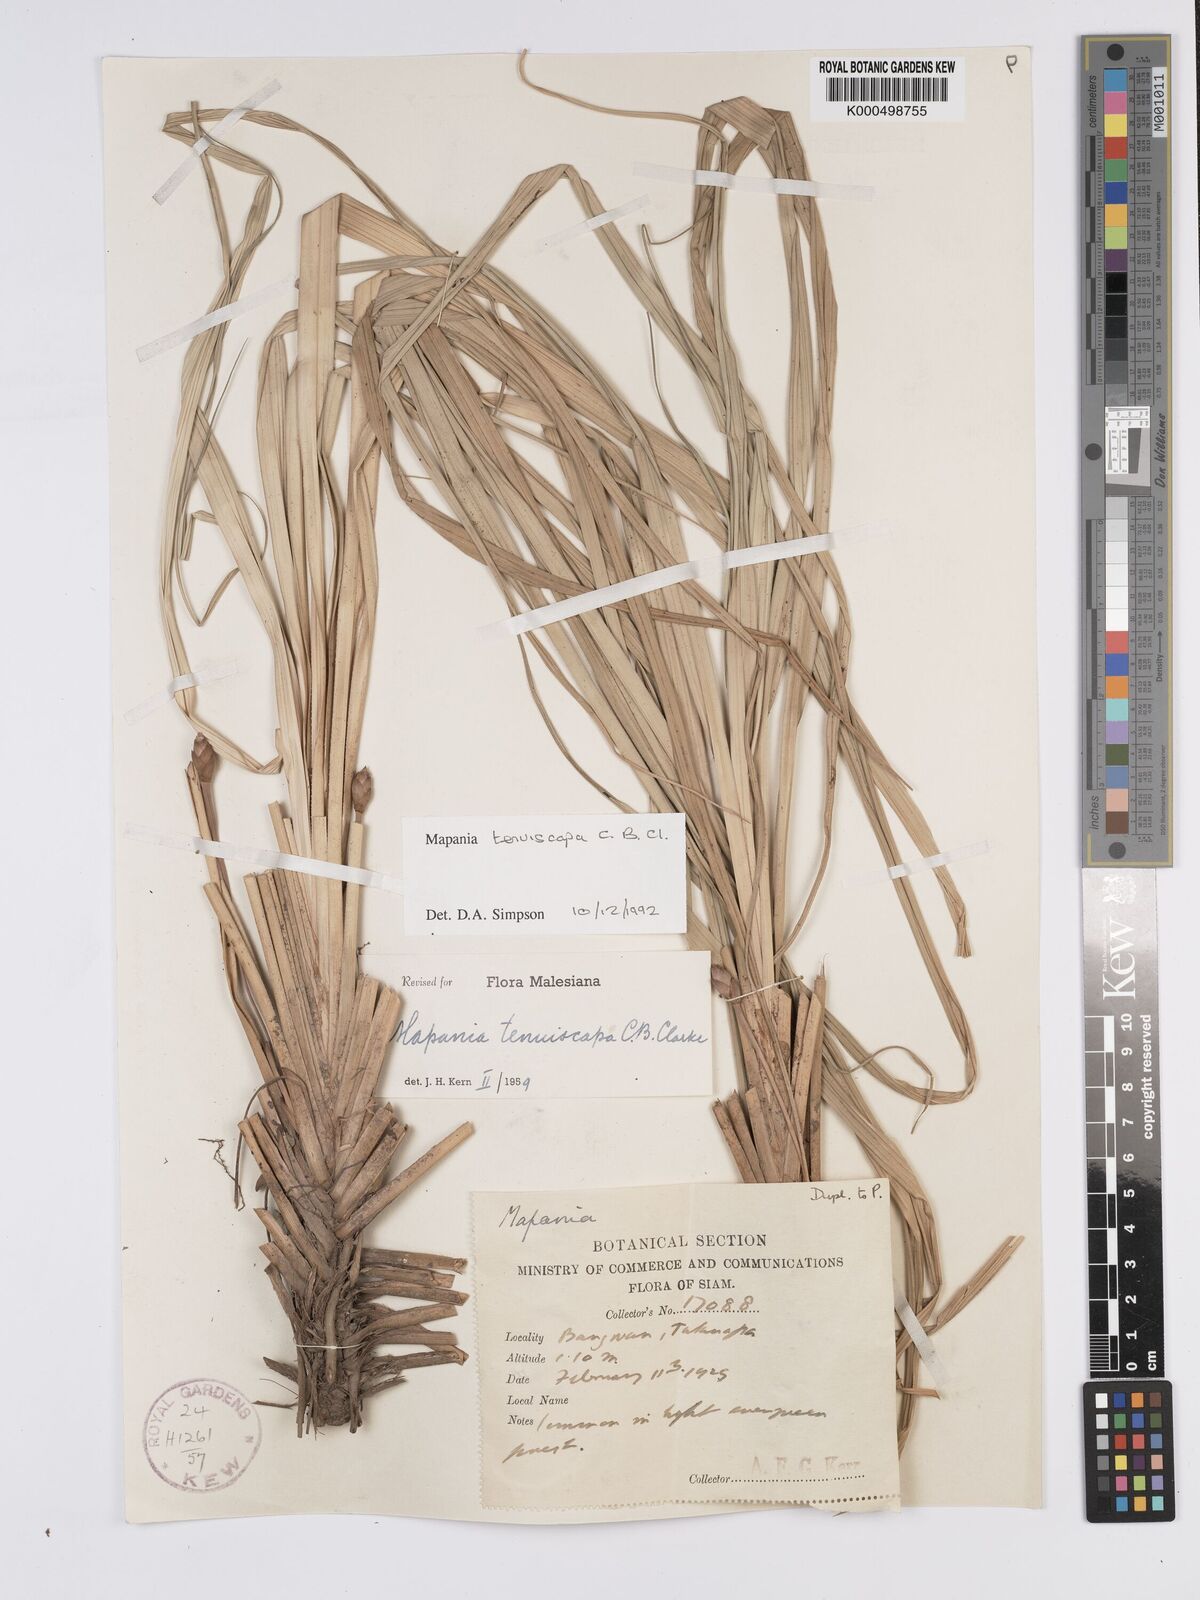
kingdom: Plantae
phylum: Tracheophyta
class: Liliopsida
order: Poales
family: Cyperaceae
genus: Mapania
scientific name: Mapania tenuiscapa
